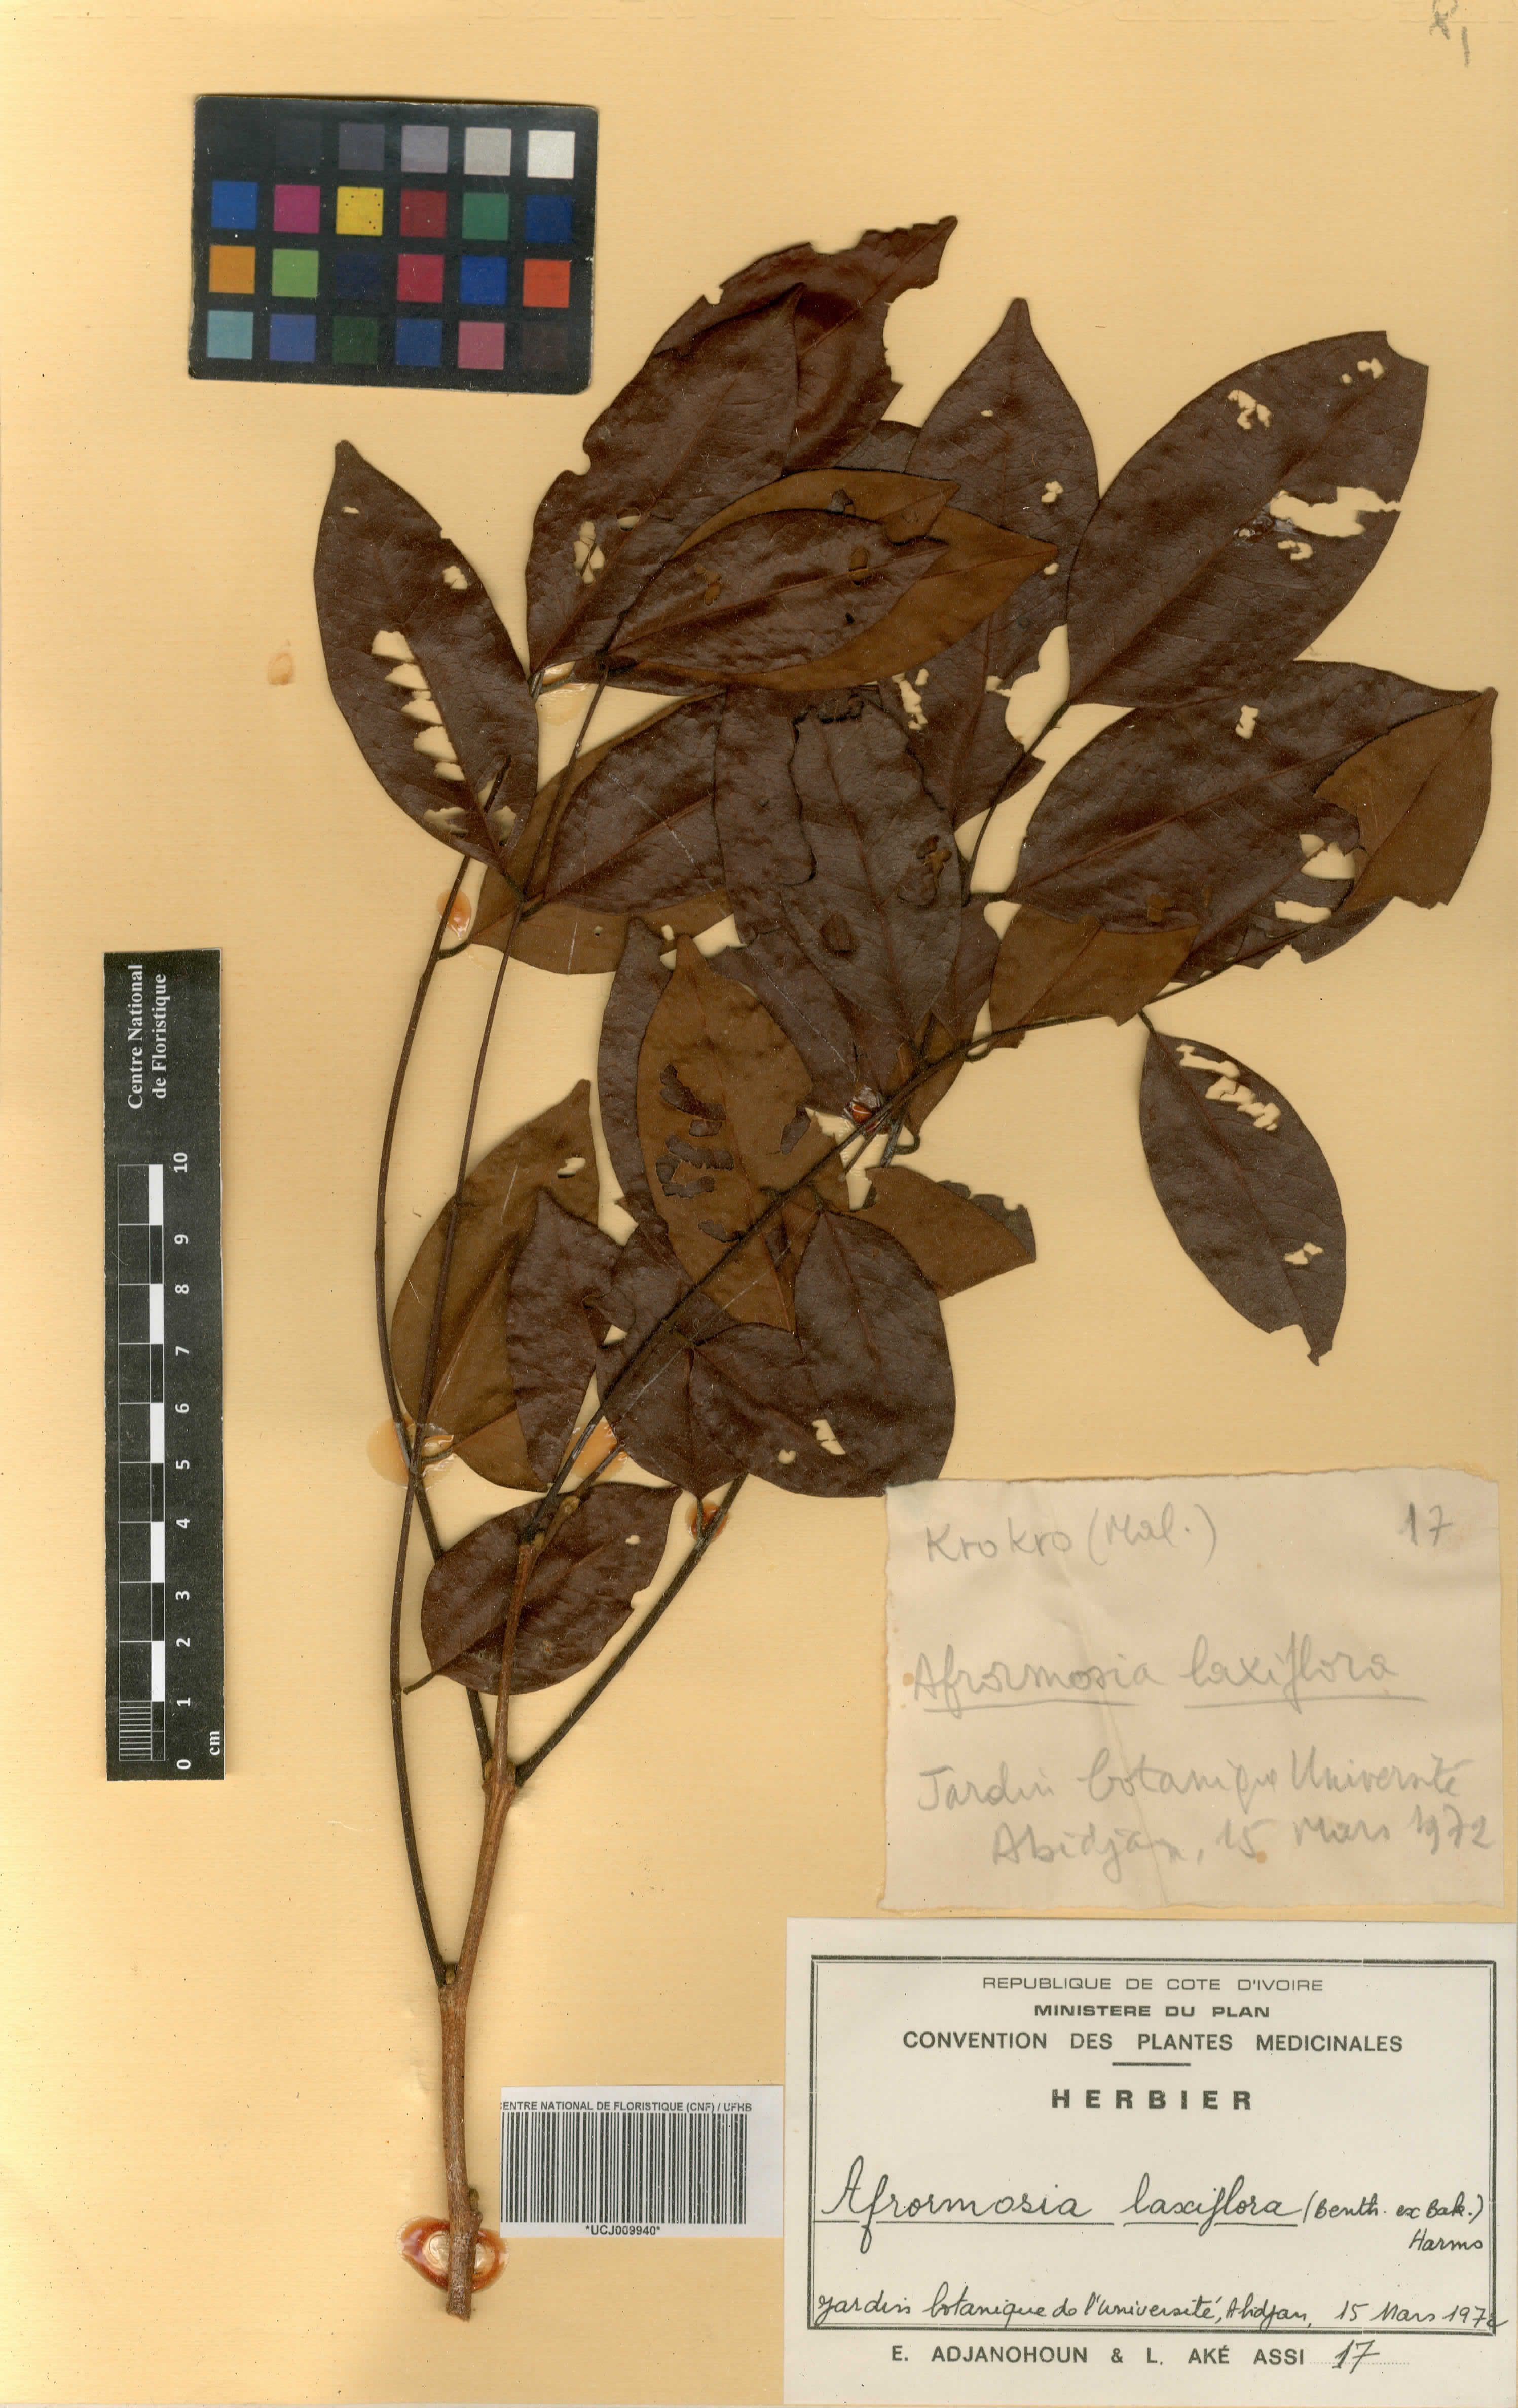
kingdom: Plantae
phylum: Tracheophyta
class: Magnoliopsida
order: Fabales
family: Fabaceae
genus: Pericopsis
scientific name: Pericopsis laxiflora
